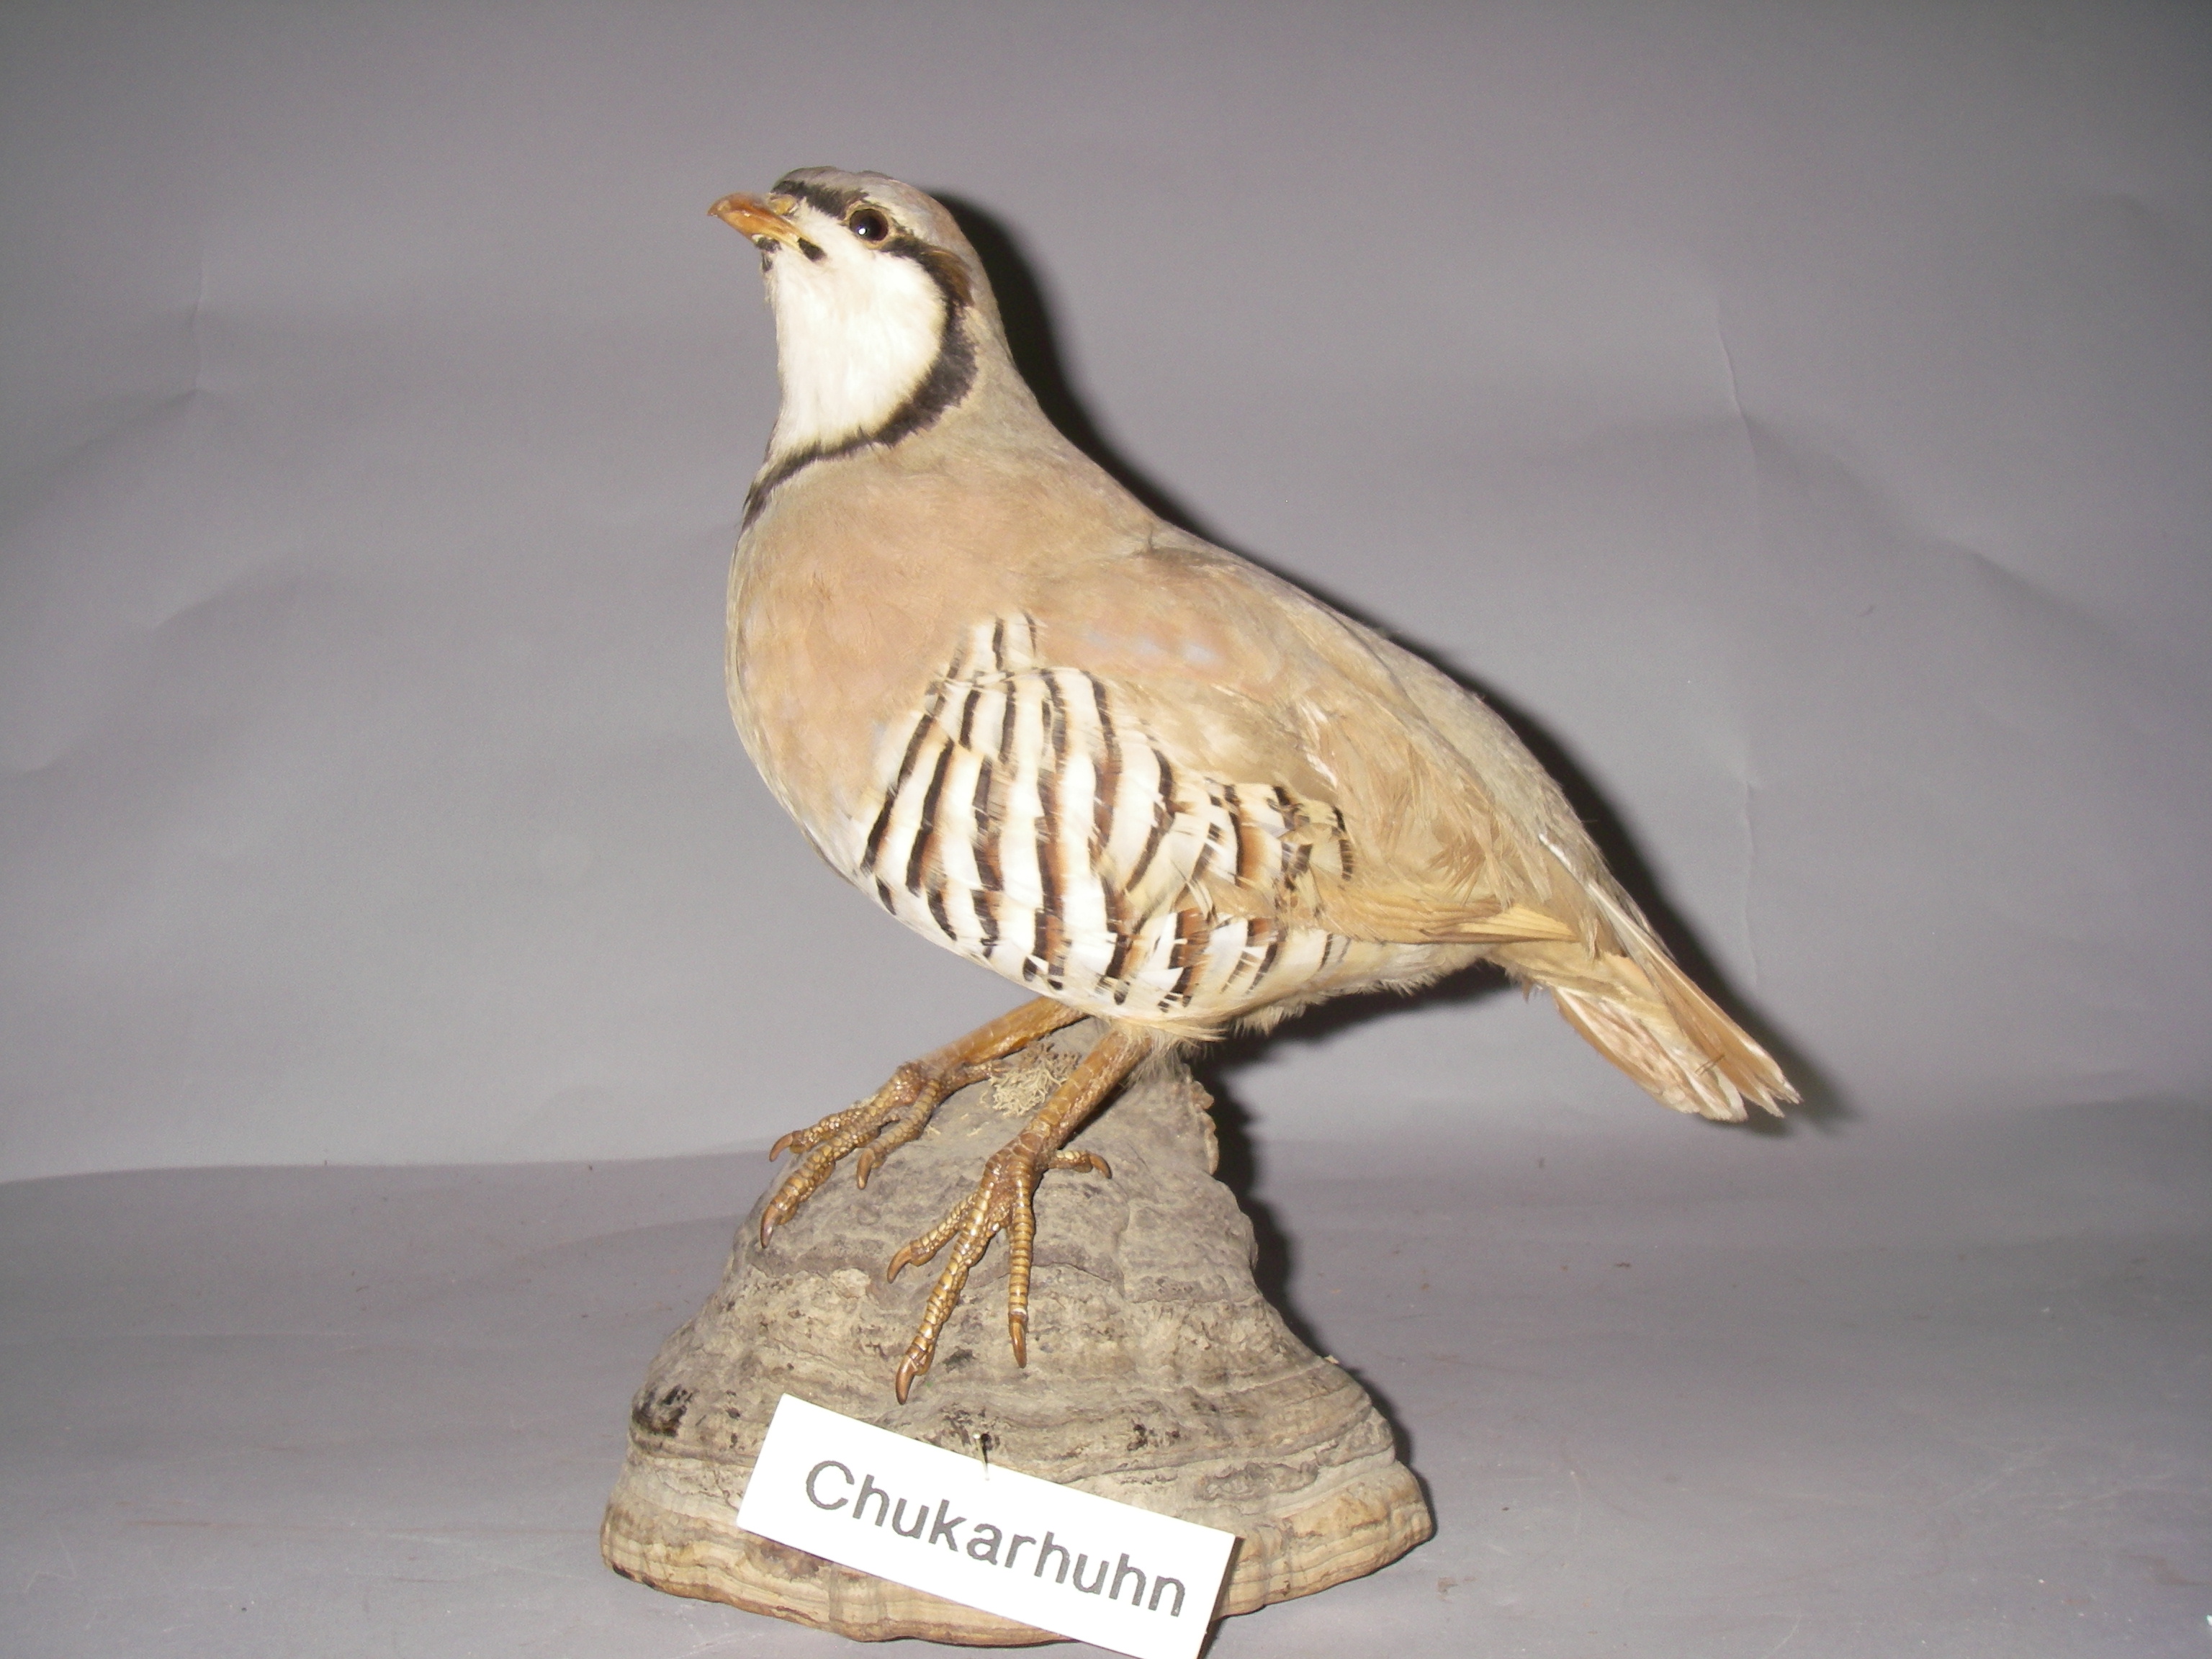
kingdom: Animalia
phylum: Chordata
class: Aves
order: Galliformes
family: Phasianidae
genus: Alectoris
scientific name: Alectoris chukar
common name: Chukar
